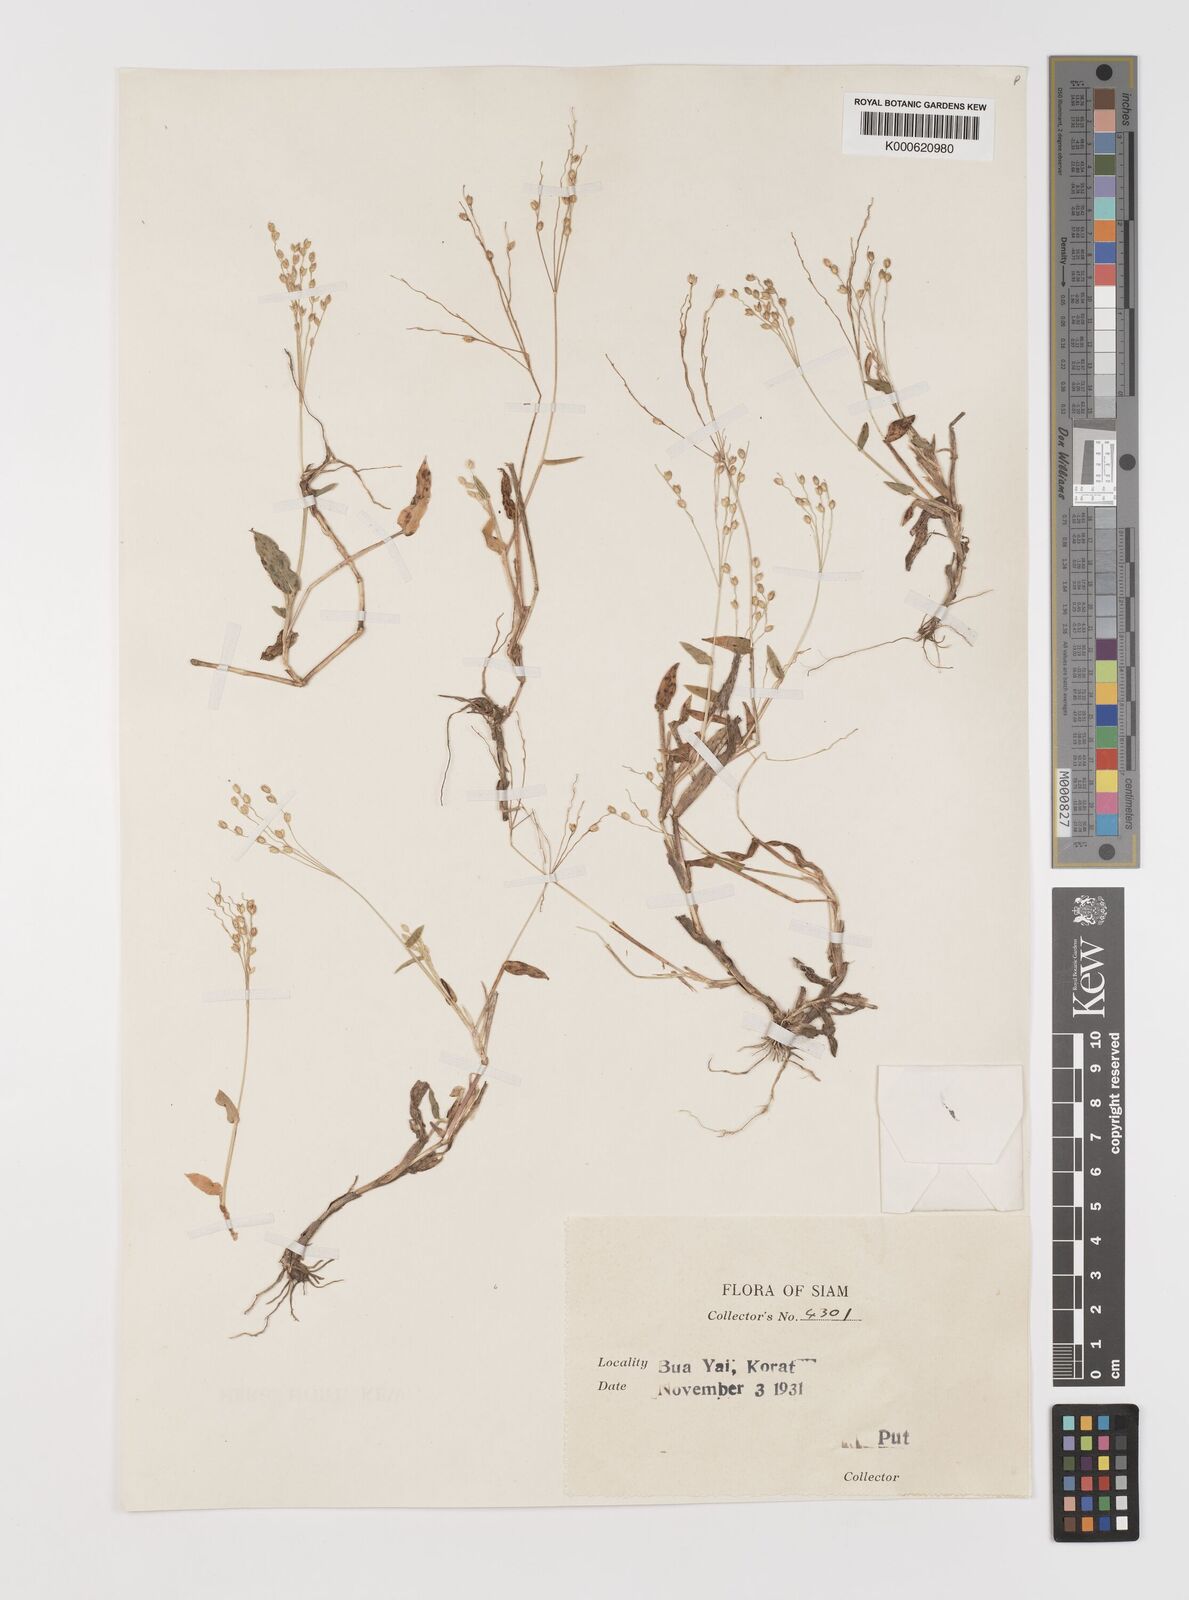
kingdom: Plantae
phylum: Tracheophyta
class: Liliopsida
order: Poales
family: Poaceae
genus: Alloteropsis
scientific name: Alloteropsis cimicina
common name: Summergrass
